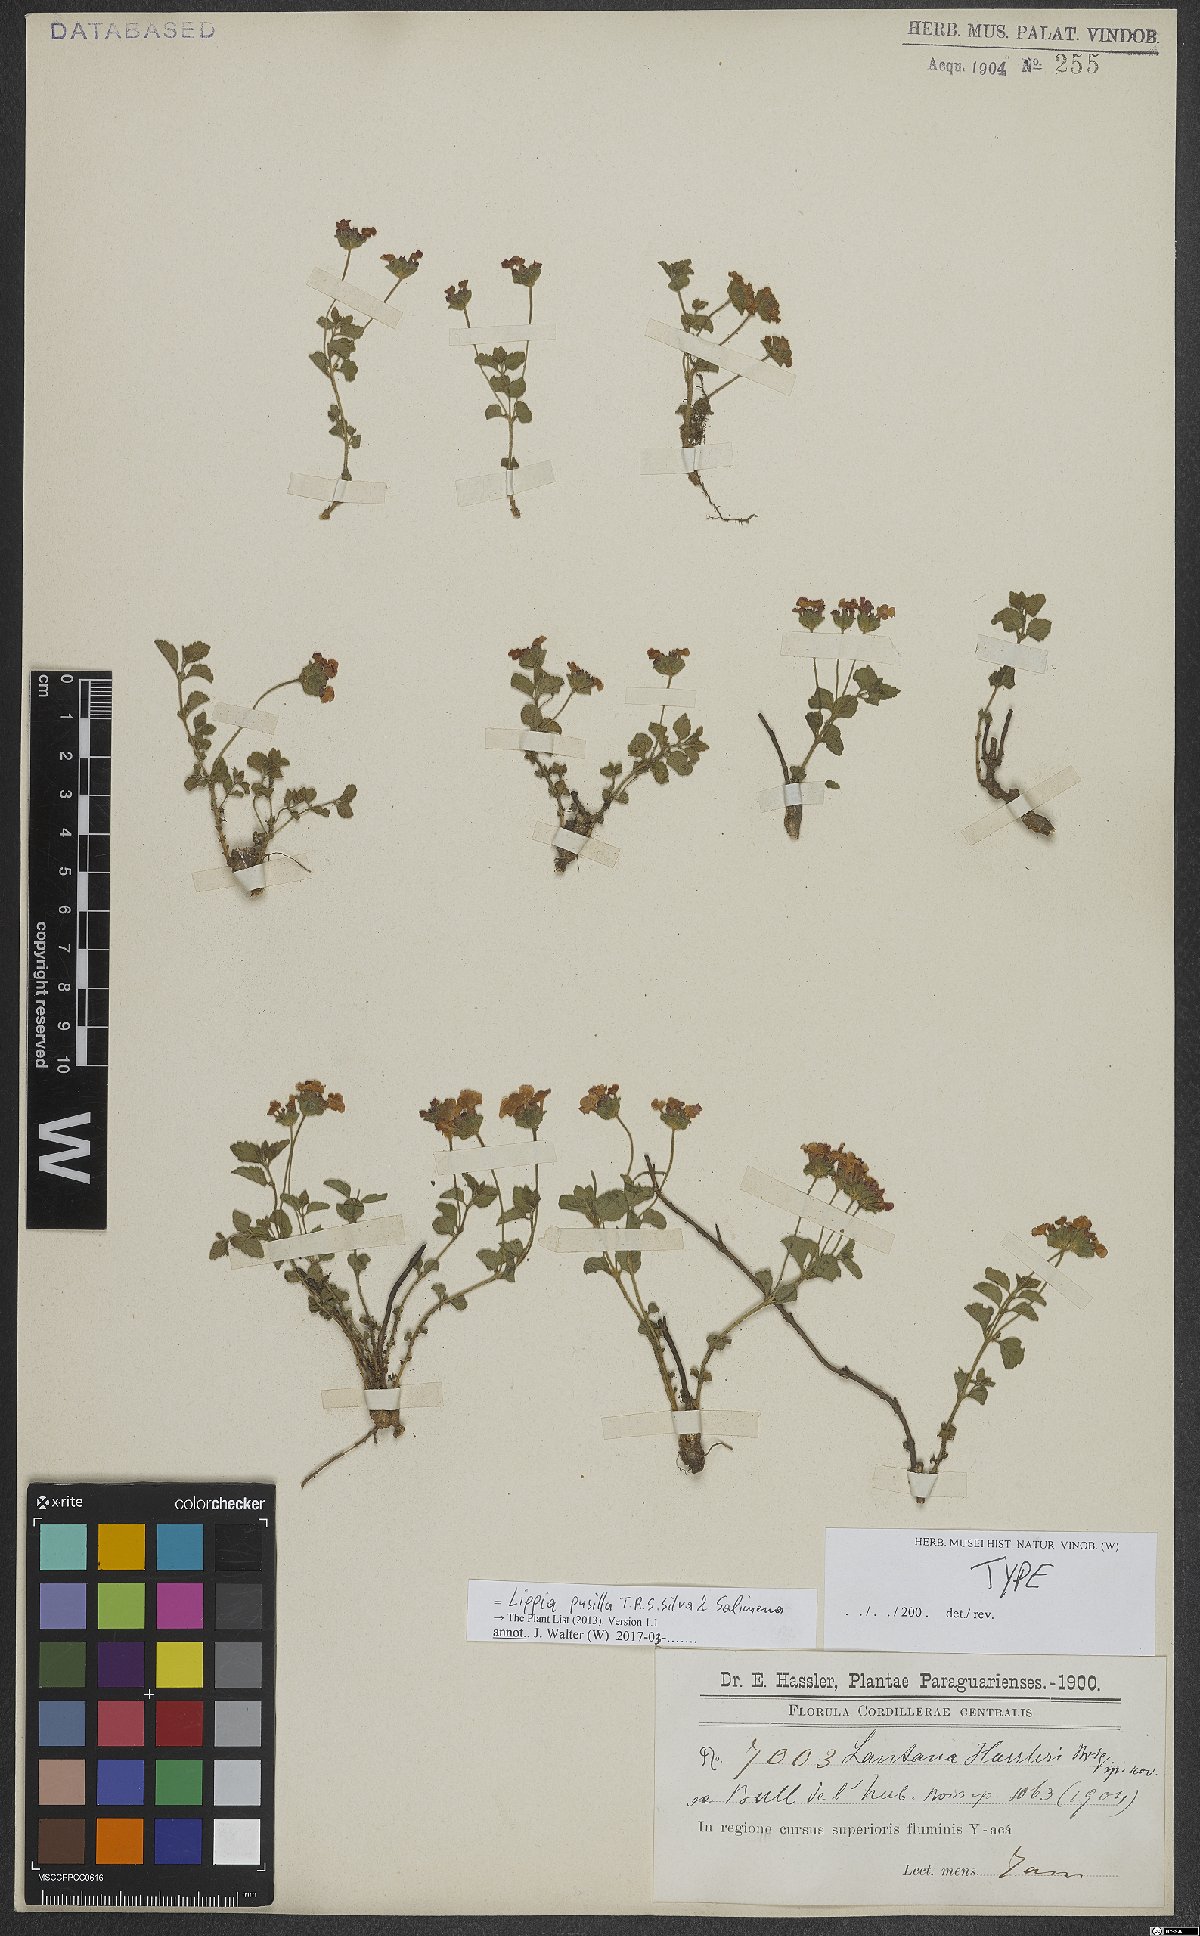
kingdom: Plantae
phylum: Tracheophyta
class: Magnoliopsida
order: Lamiales
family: Verbenaceae
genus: Lippia
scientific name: Lippia pusilla
